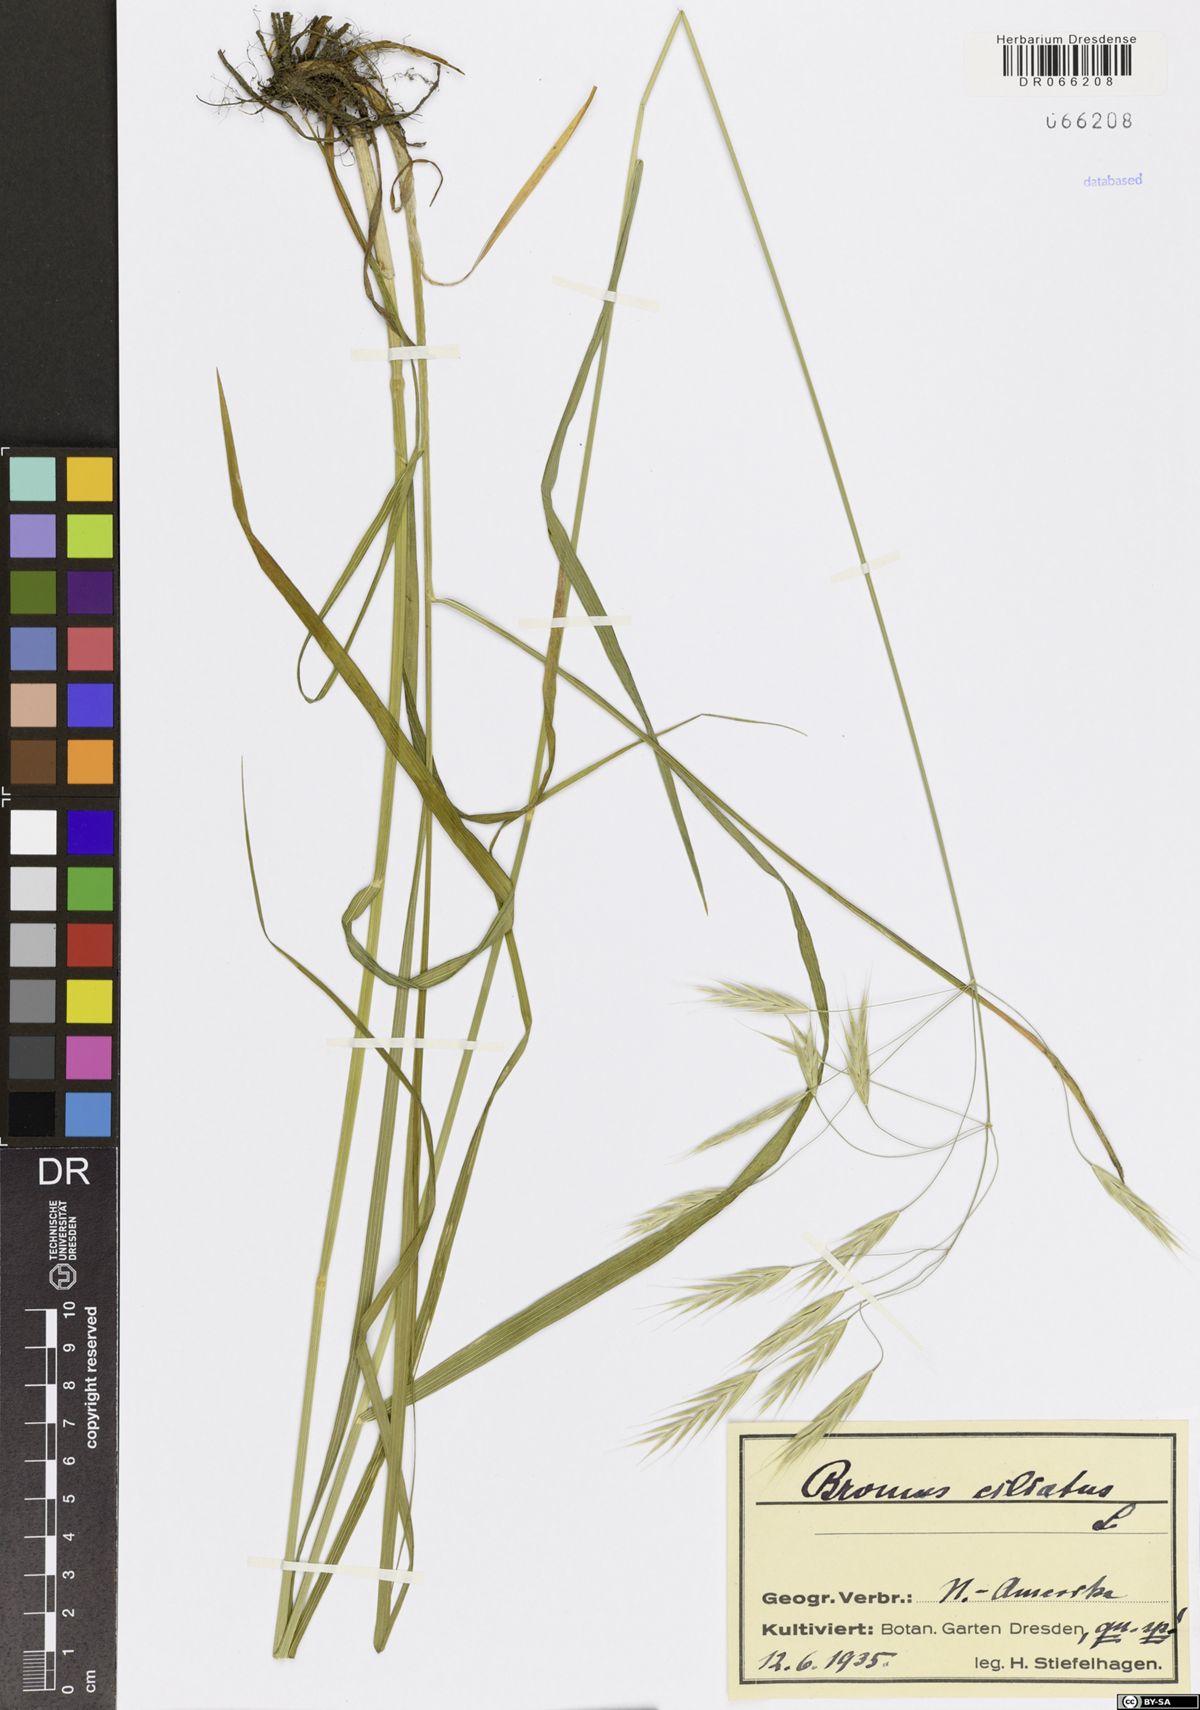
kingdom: Plantae
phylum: Tracheophyta
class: Liliopsida
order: Poales
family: Poaceae
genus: Bromus
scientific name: Bromus ciliatus
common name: Fringe brome
